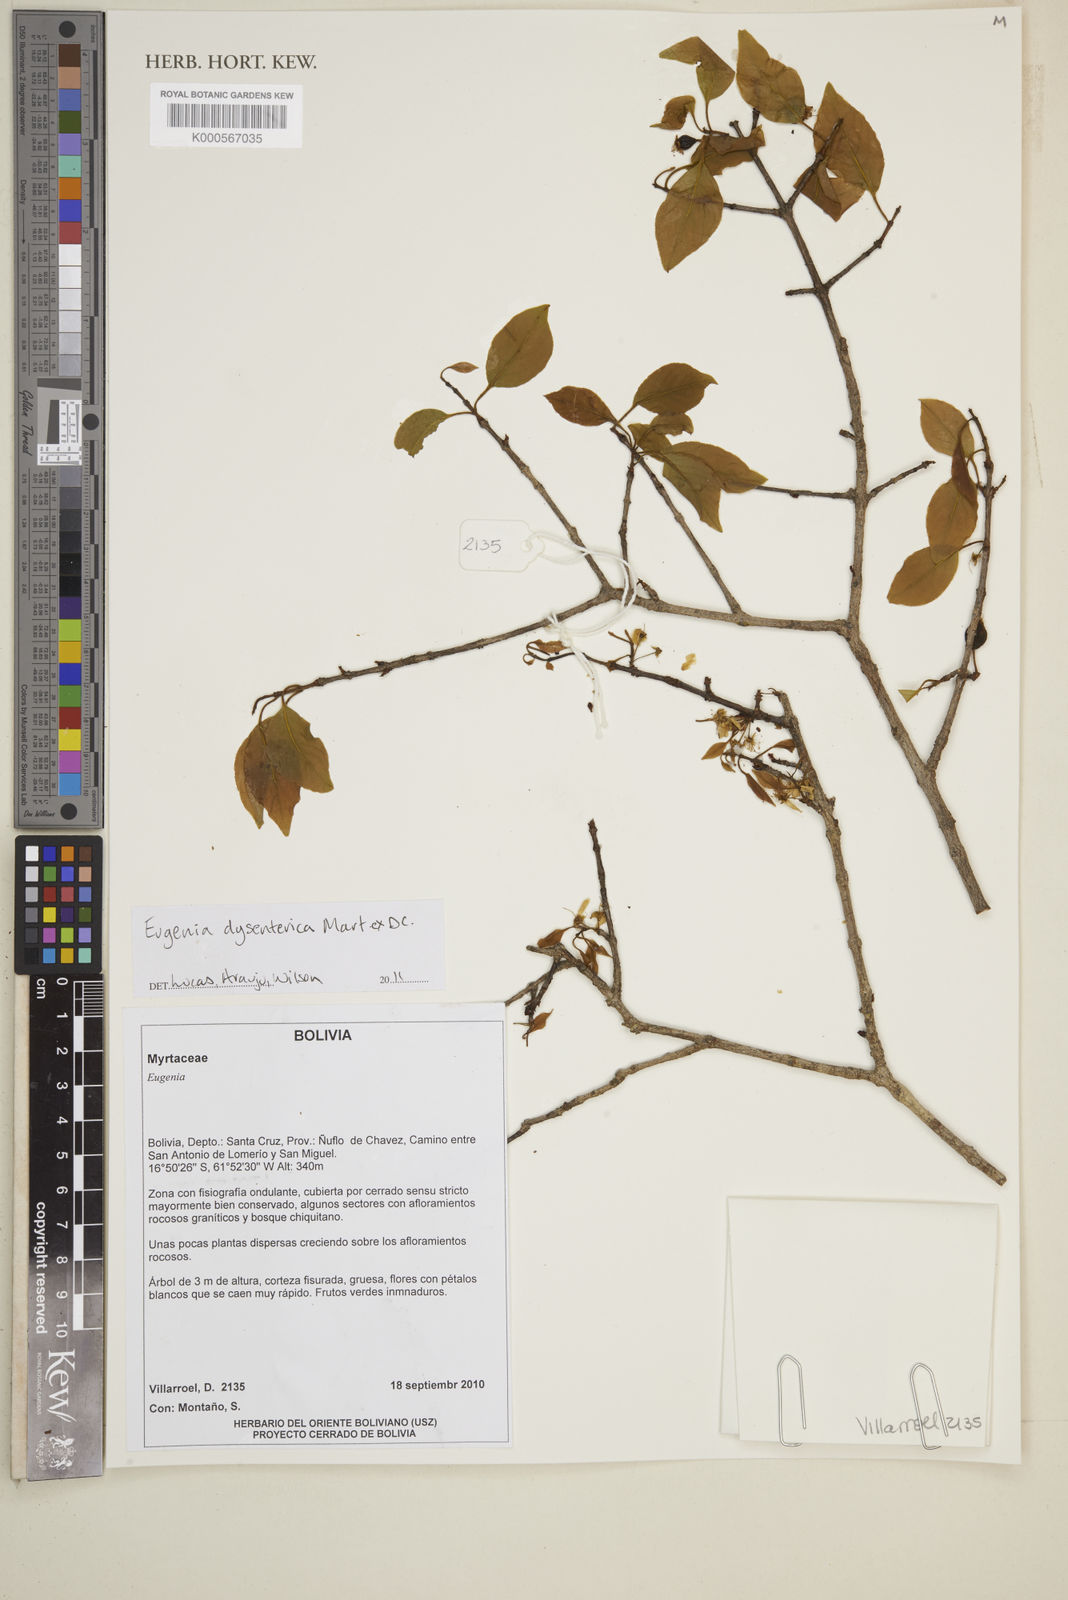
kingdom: Plantae
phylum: Tracheophyta
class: Magnoliopsida
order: Myrtales
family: Myrtaceae
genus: Eugenia
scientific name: Eugenia dysenterica
